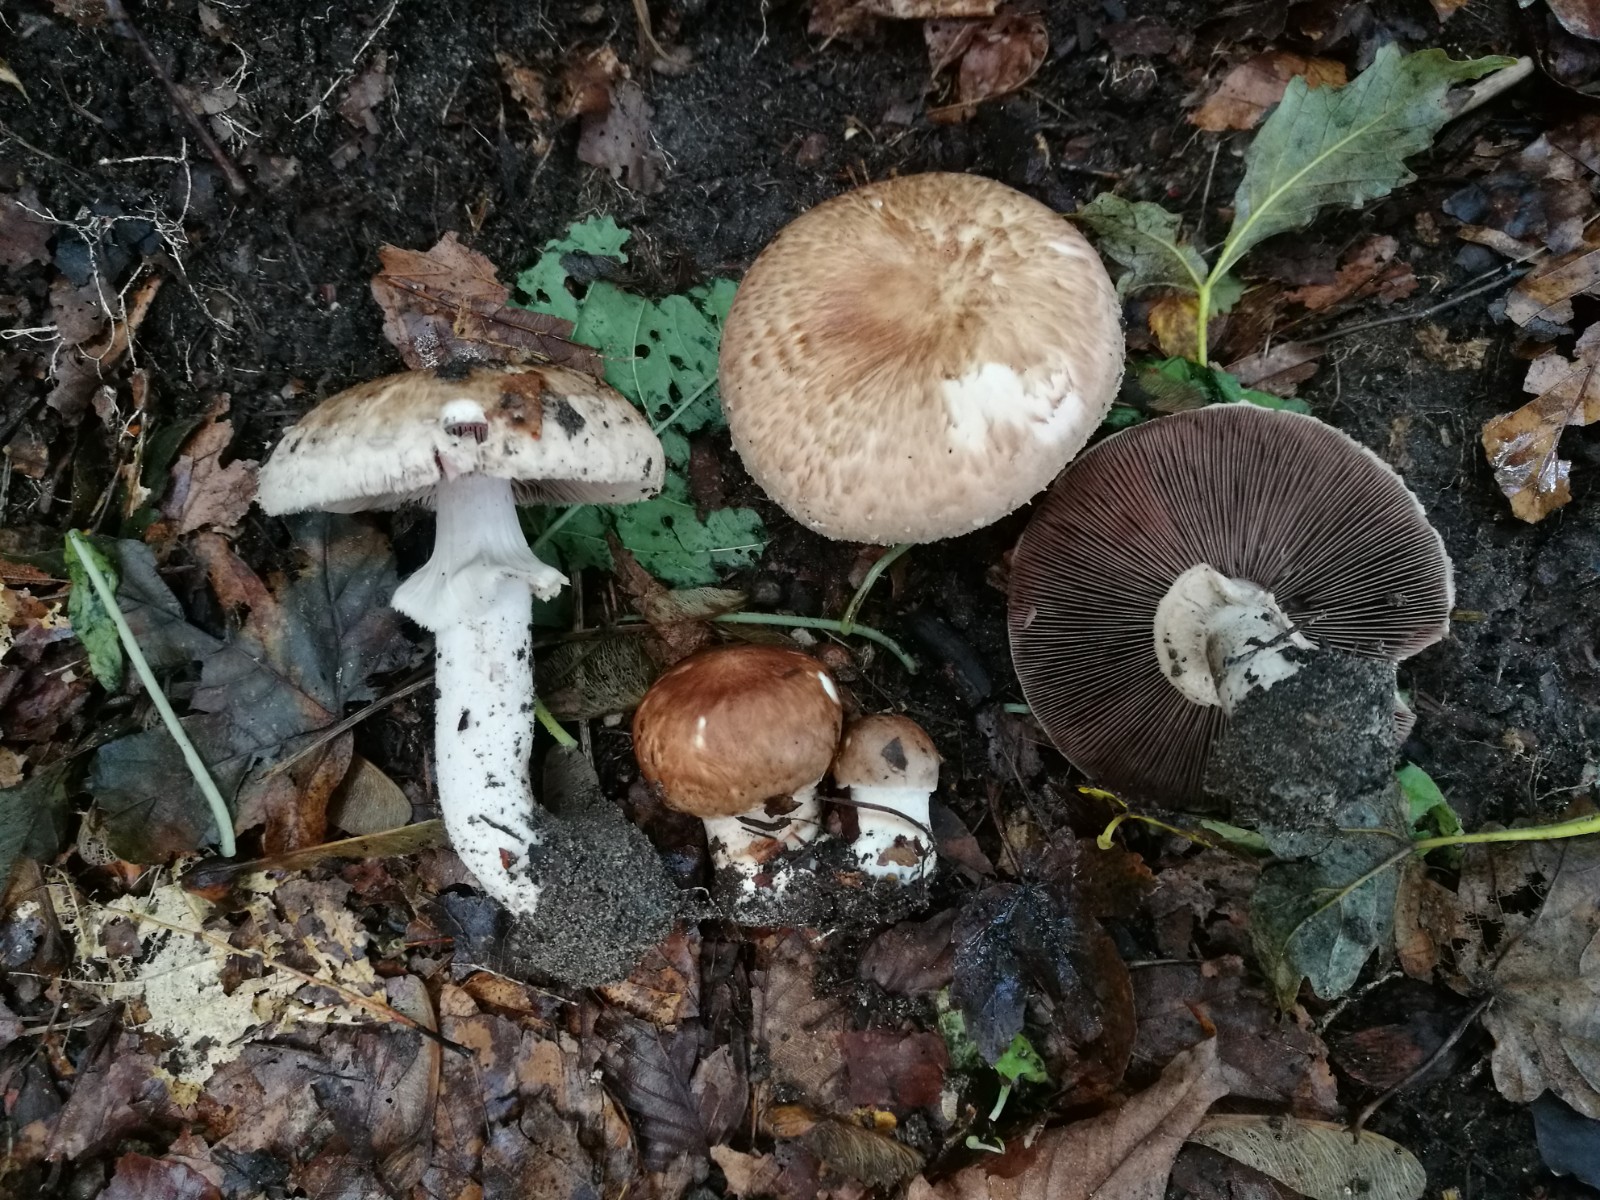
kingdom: Fungi
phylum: Basidiomycota
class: Agaricomycetes
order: Agaricales
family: Agaricaceae
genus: Agaricus
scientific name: Agaricus lanipes
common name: uldstokket champignon
